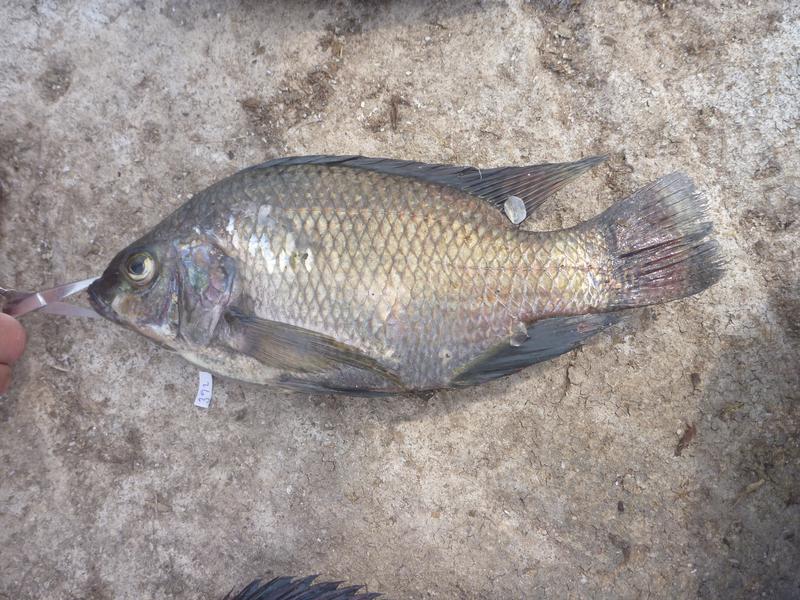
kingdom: Animalia
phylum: Chordata
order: Perciformes
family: Cichlidae
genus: Oreochromis
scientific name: Oreochromis niloticus
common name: Nile tilapia
